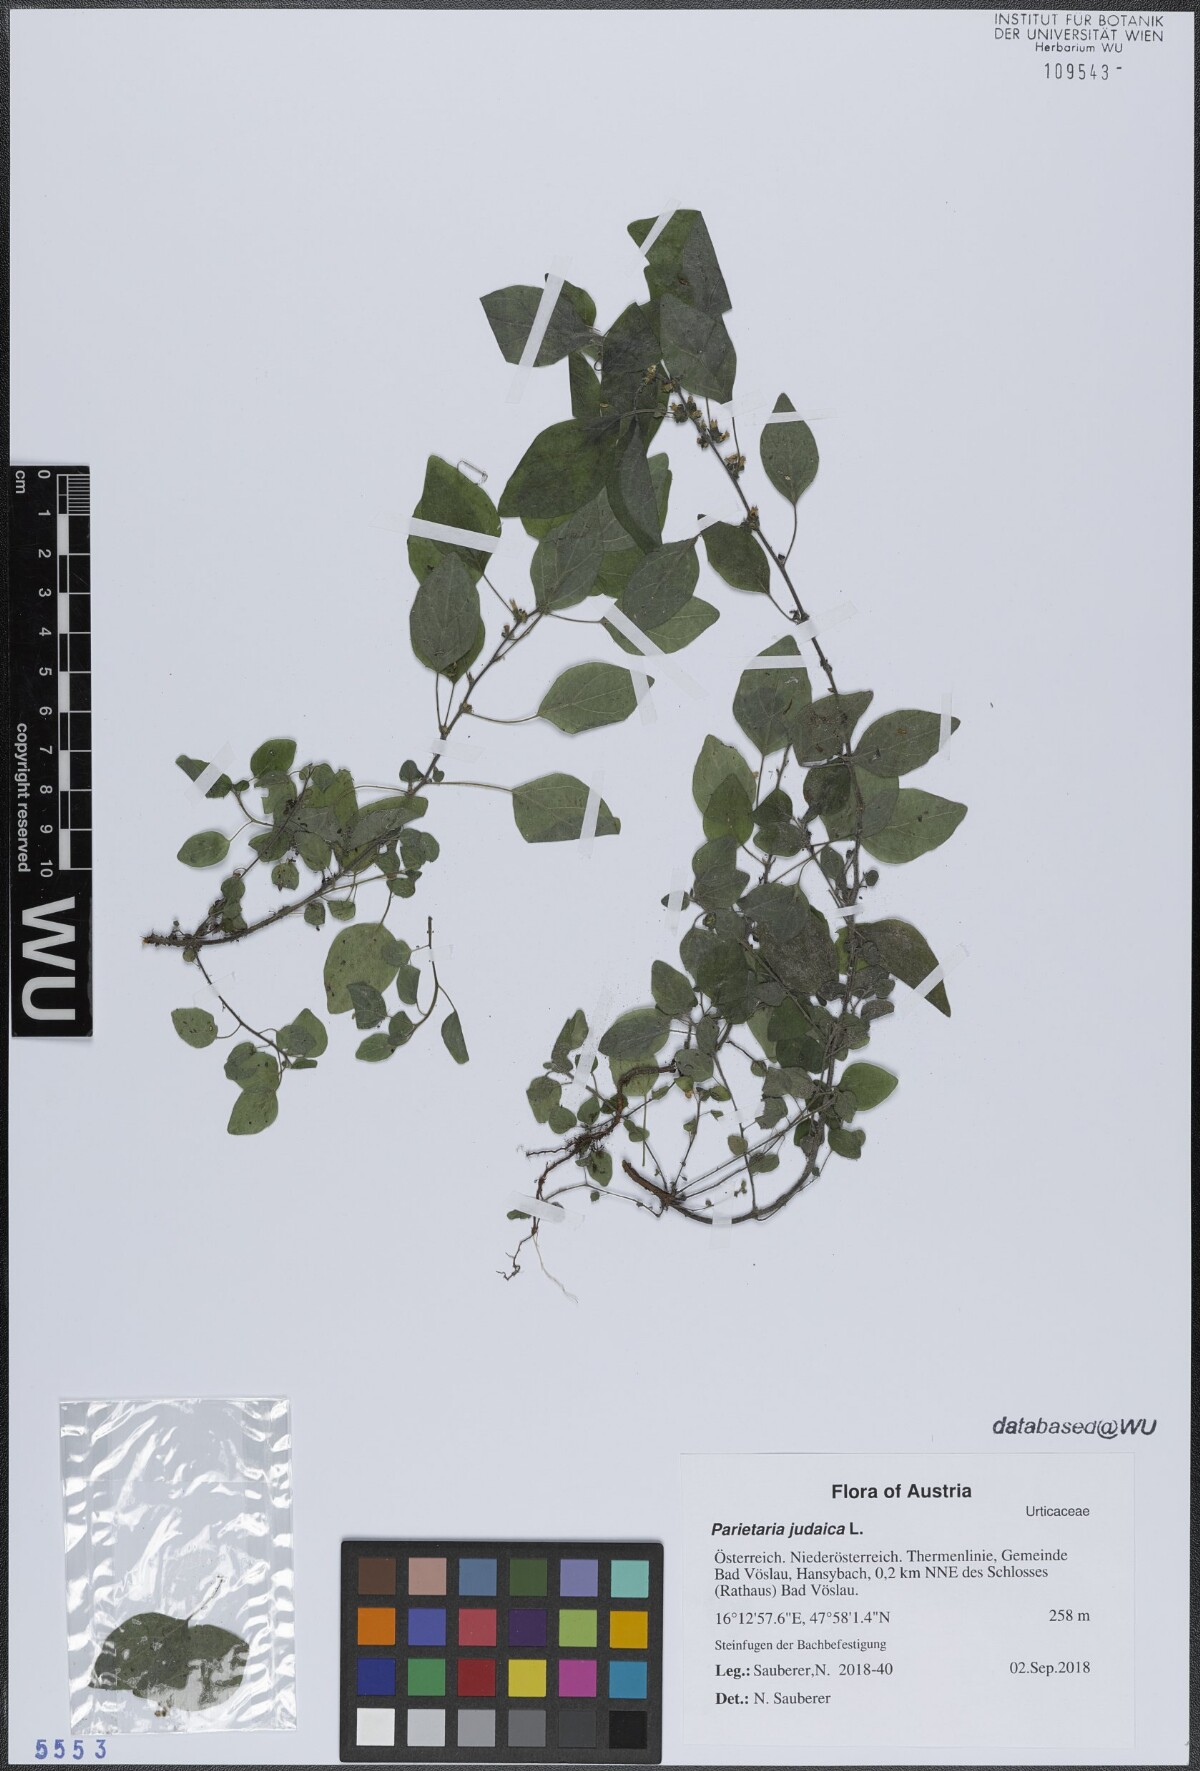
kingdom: Plantae
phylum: Tracheophyta
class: Magnoliopsida
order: Rosales
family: Urticaceae
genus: Parietaria
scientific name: Parietaria judaica
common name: Pellitory-of-the-wall
